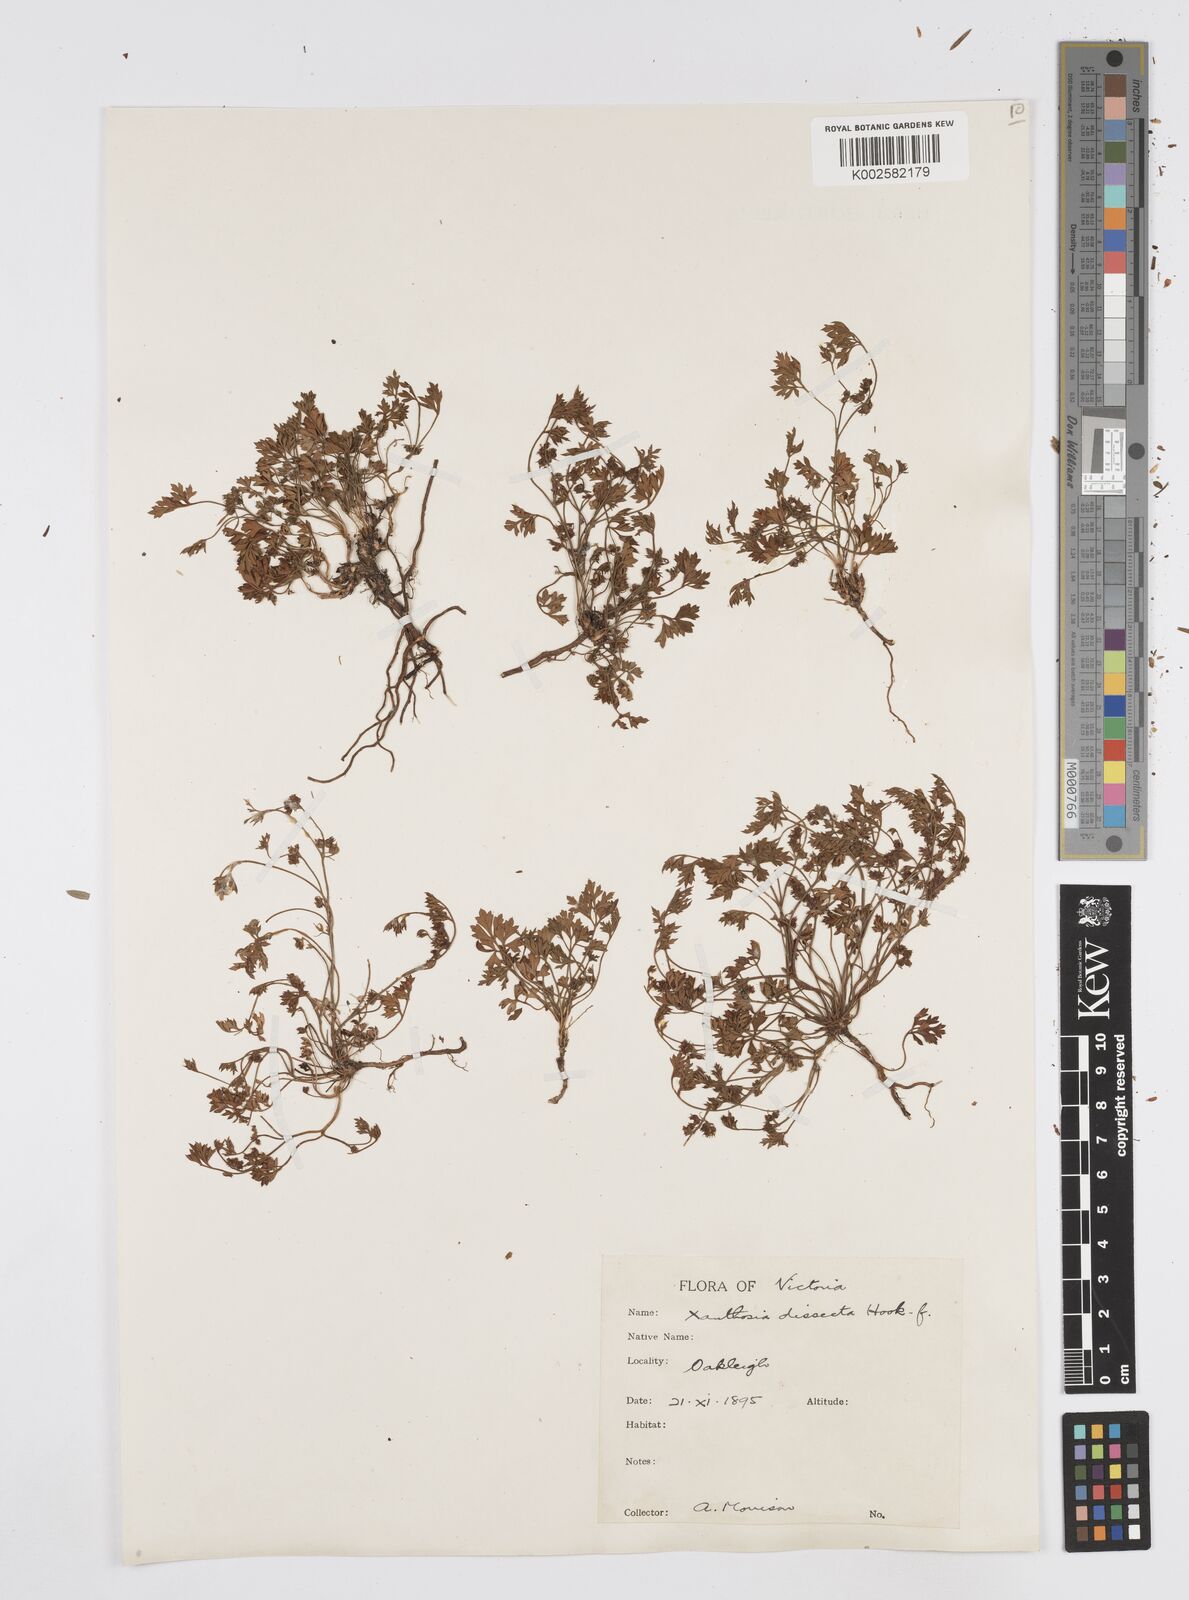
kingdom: Plantae
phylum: Tracheophyta
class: Magnoliopsida
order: Apiales
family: Apiaceae
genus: Xanthosia
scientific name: Xanthosia dissecta
